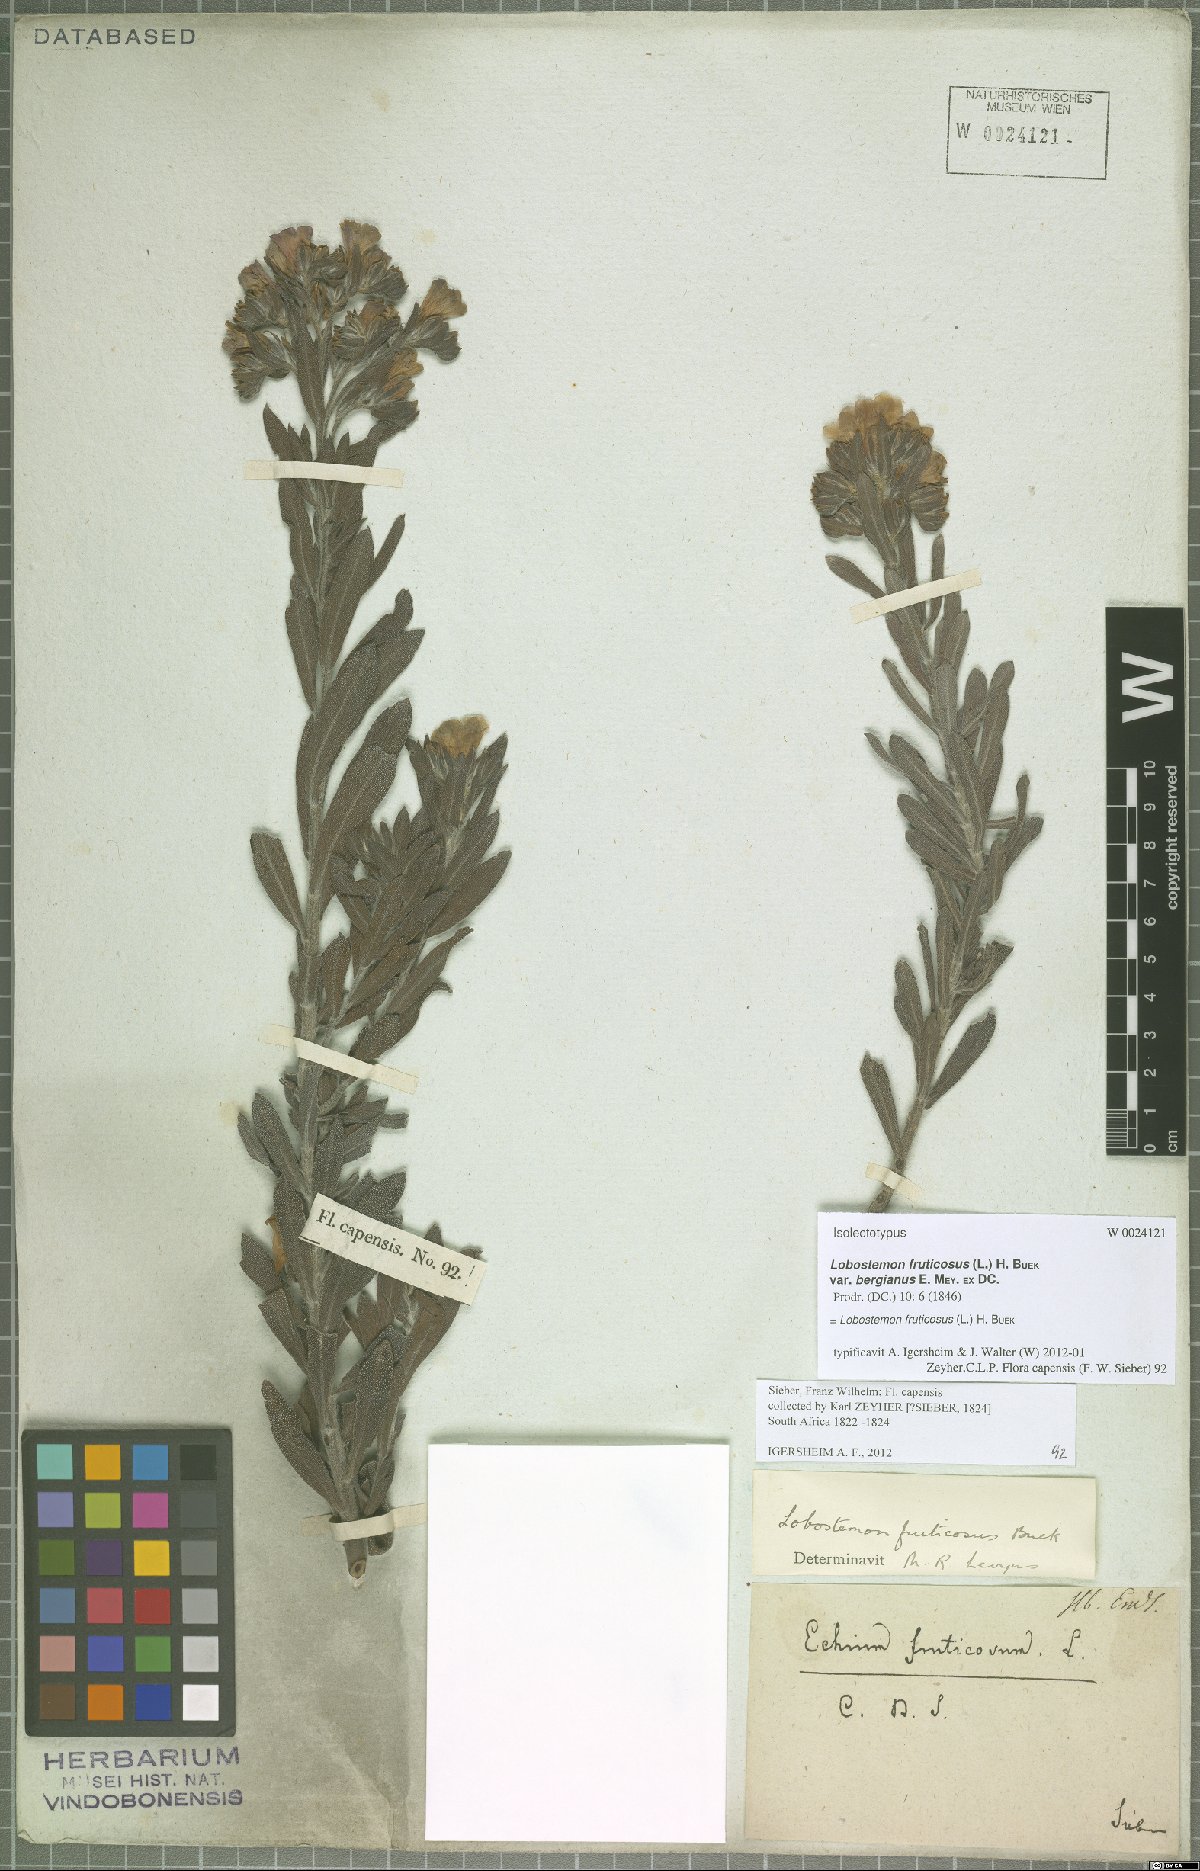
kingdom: Plantae
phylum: Tracheophyta
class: Magnoliopsida
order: Boraginales
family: Boraginaceae
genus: Lobostemon
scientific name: Lobostemon fruticosus
